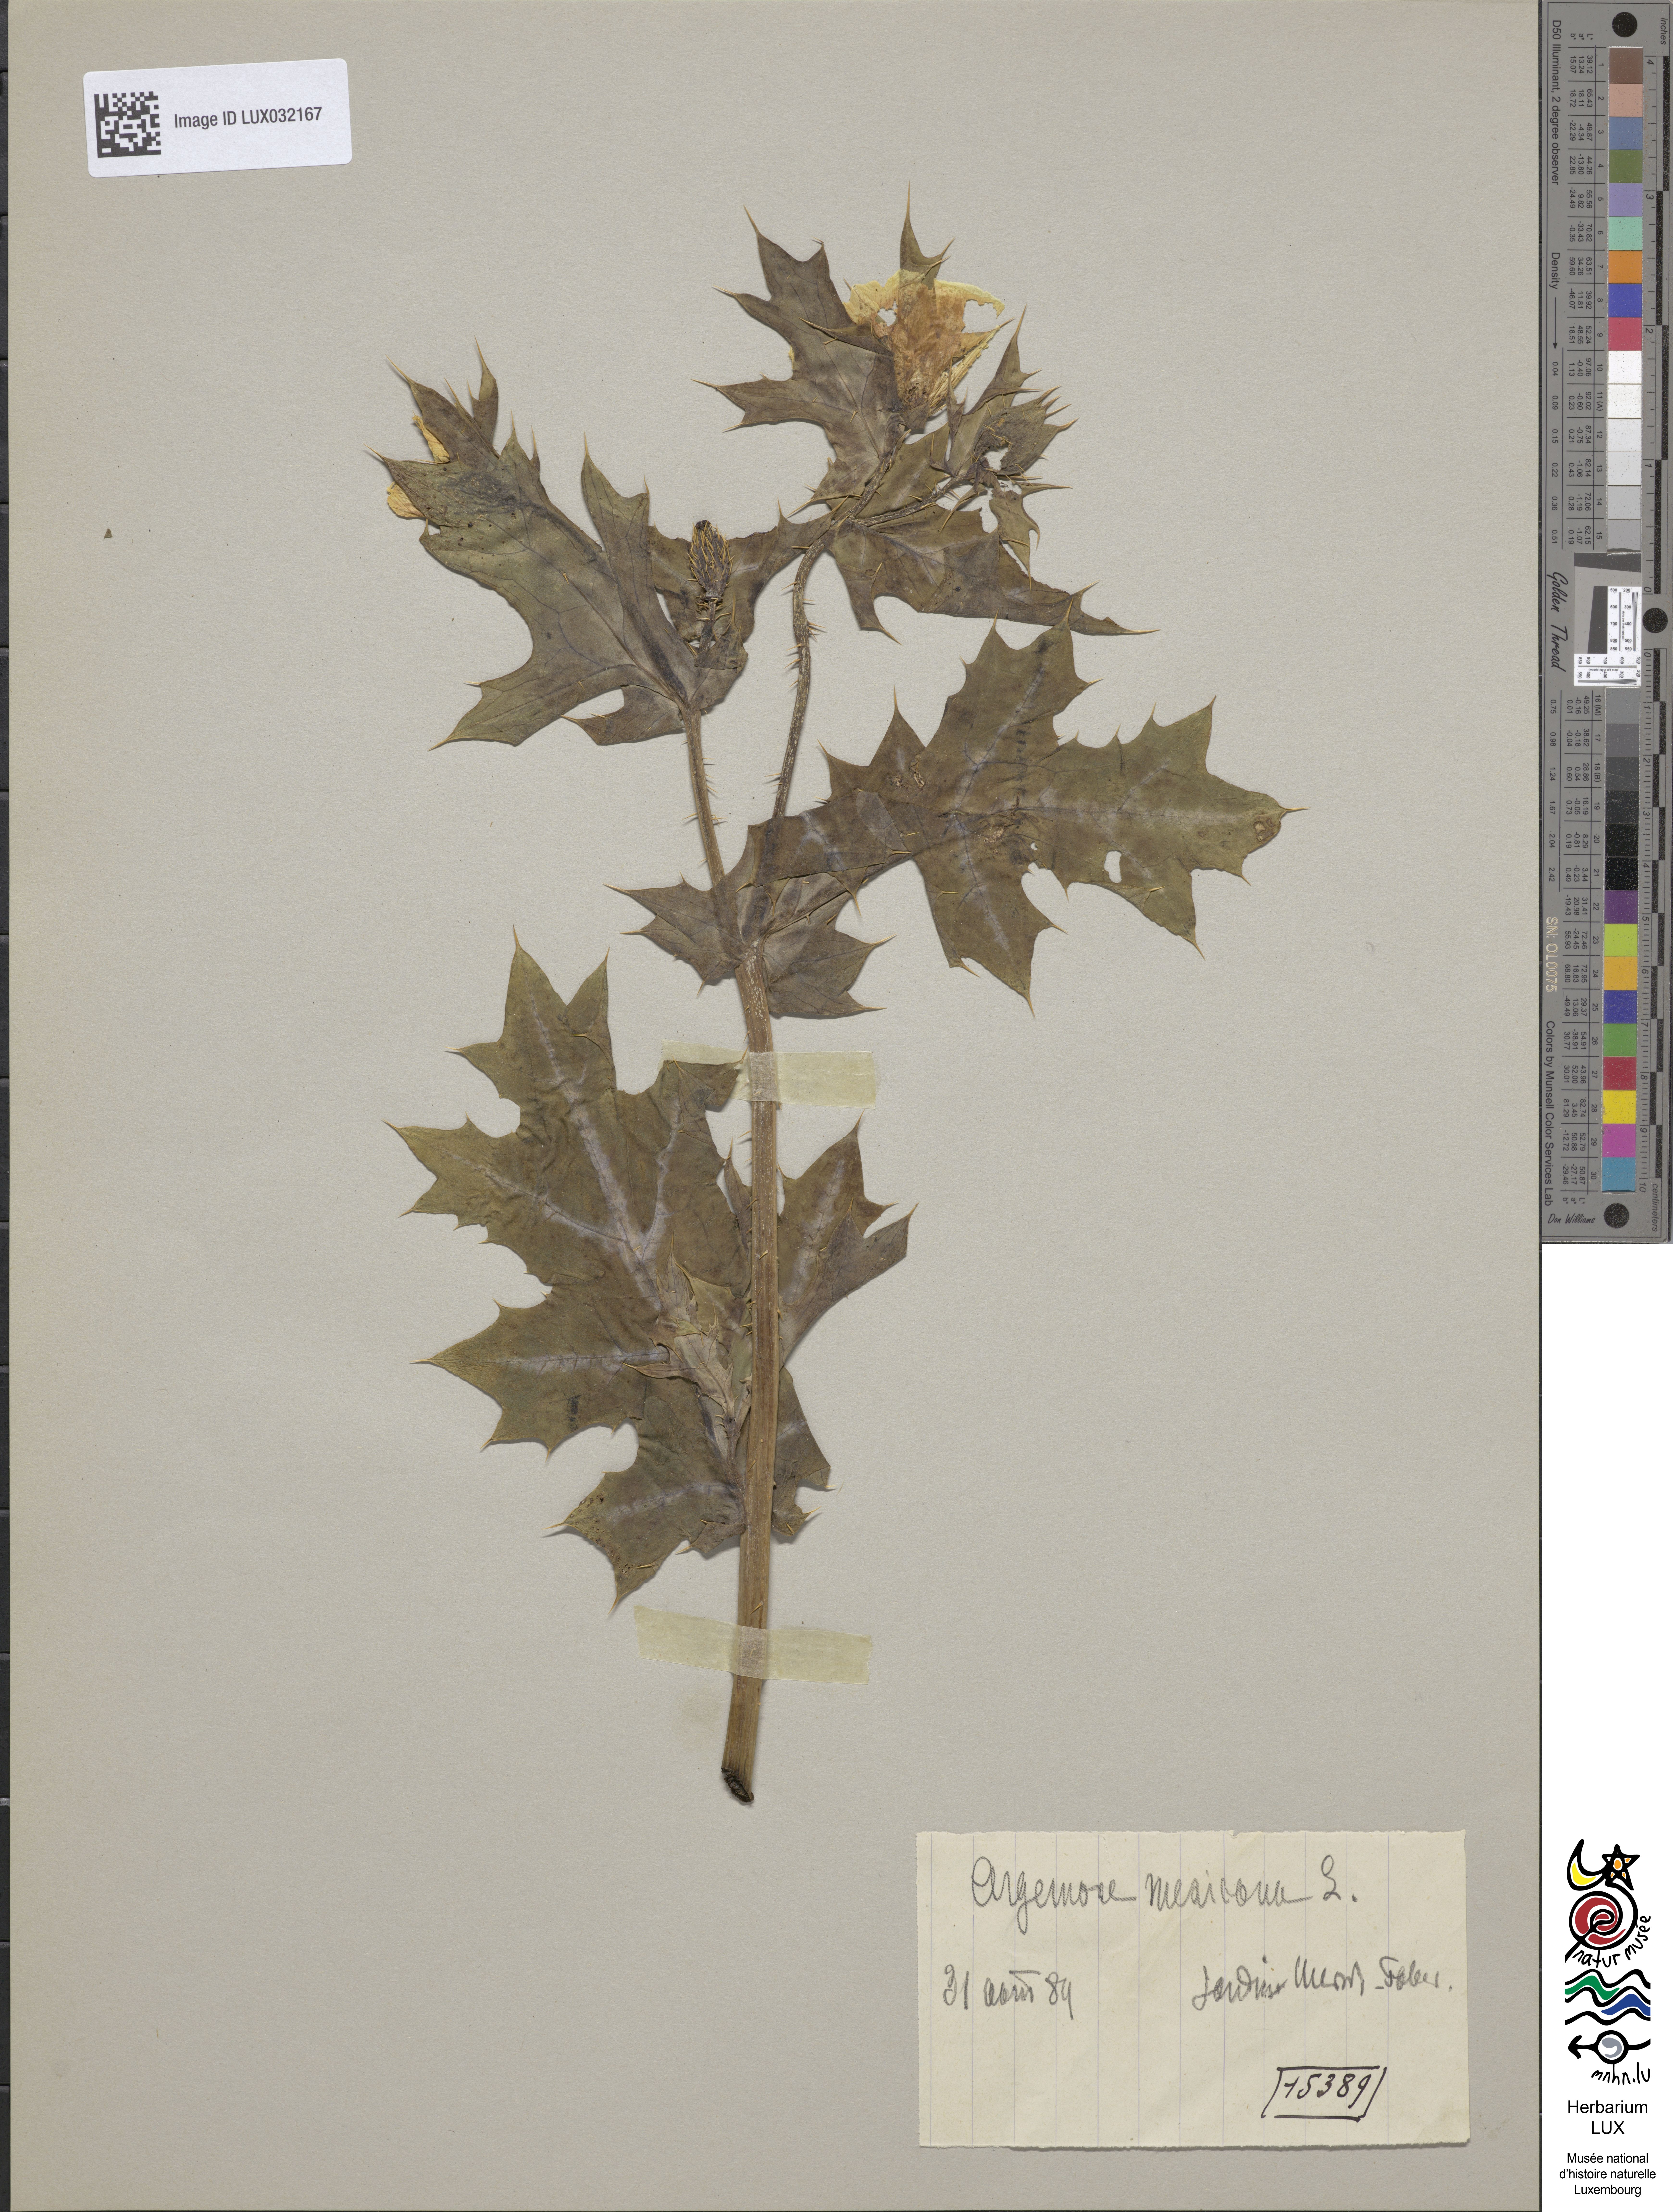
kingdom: Plantae
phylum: Tracheophyta
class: Magnoliopsida
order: Ranunculales
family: Papaveraceae
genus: Argemone
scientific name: Argemone mexicana
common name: Mexican poppy
